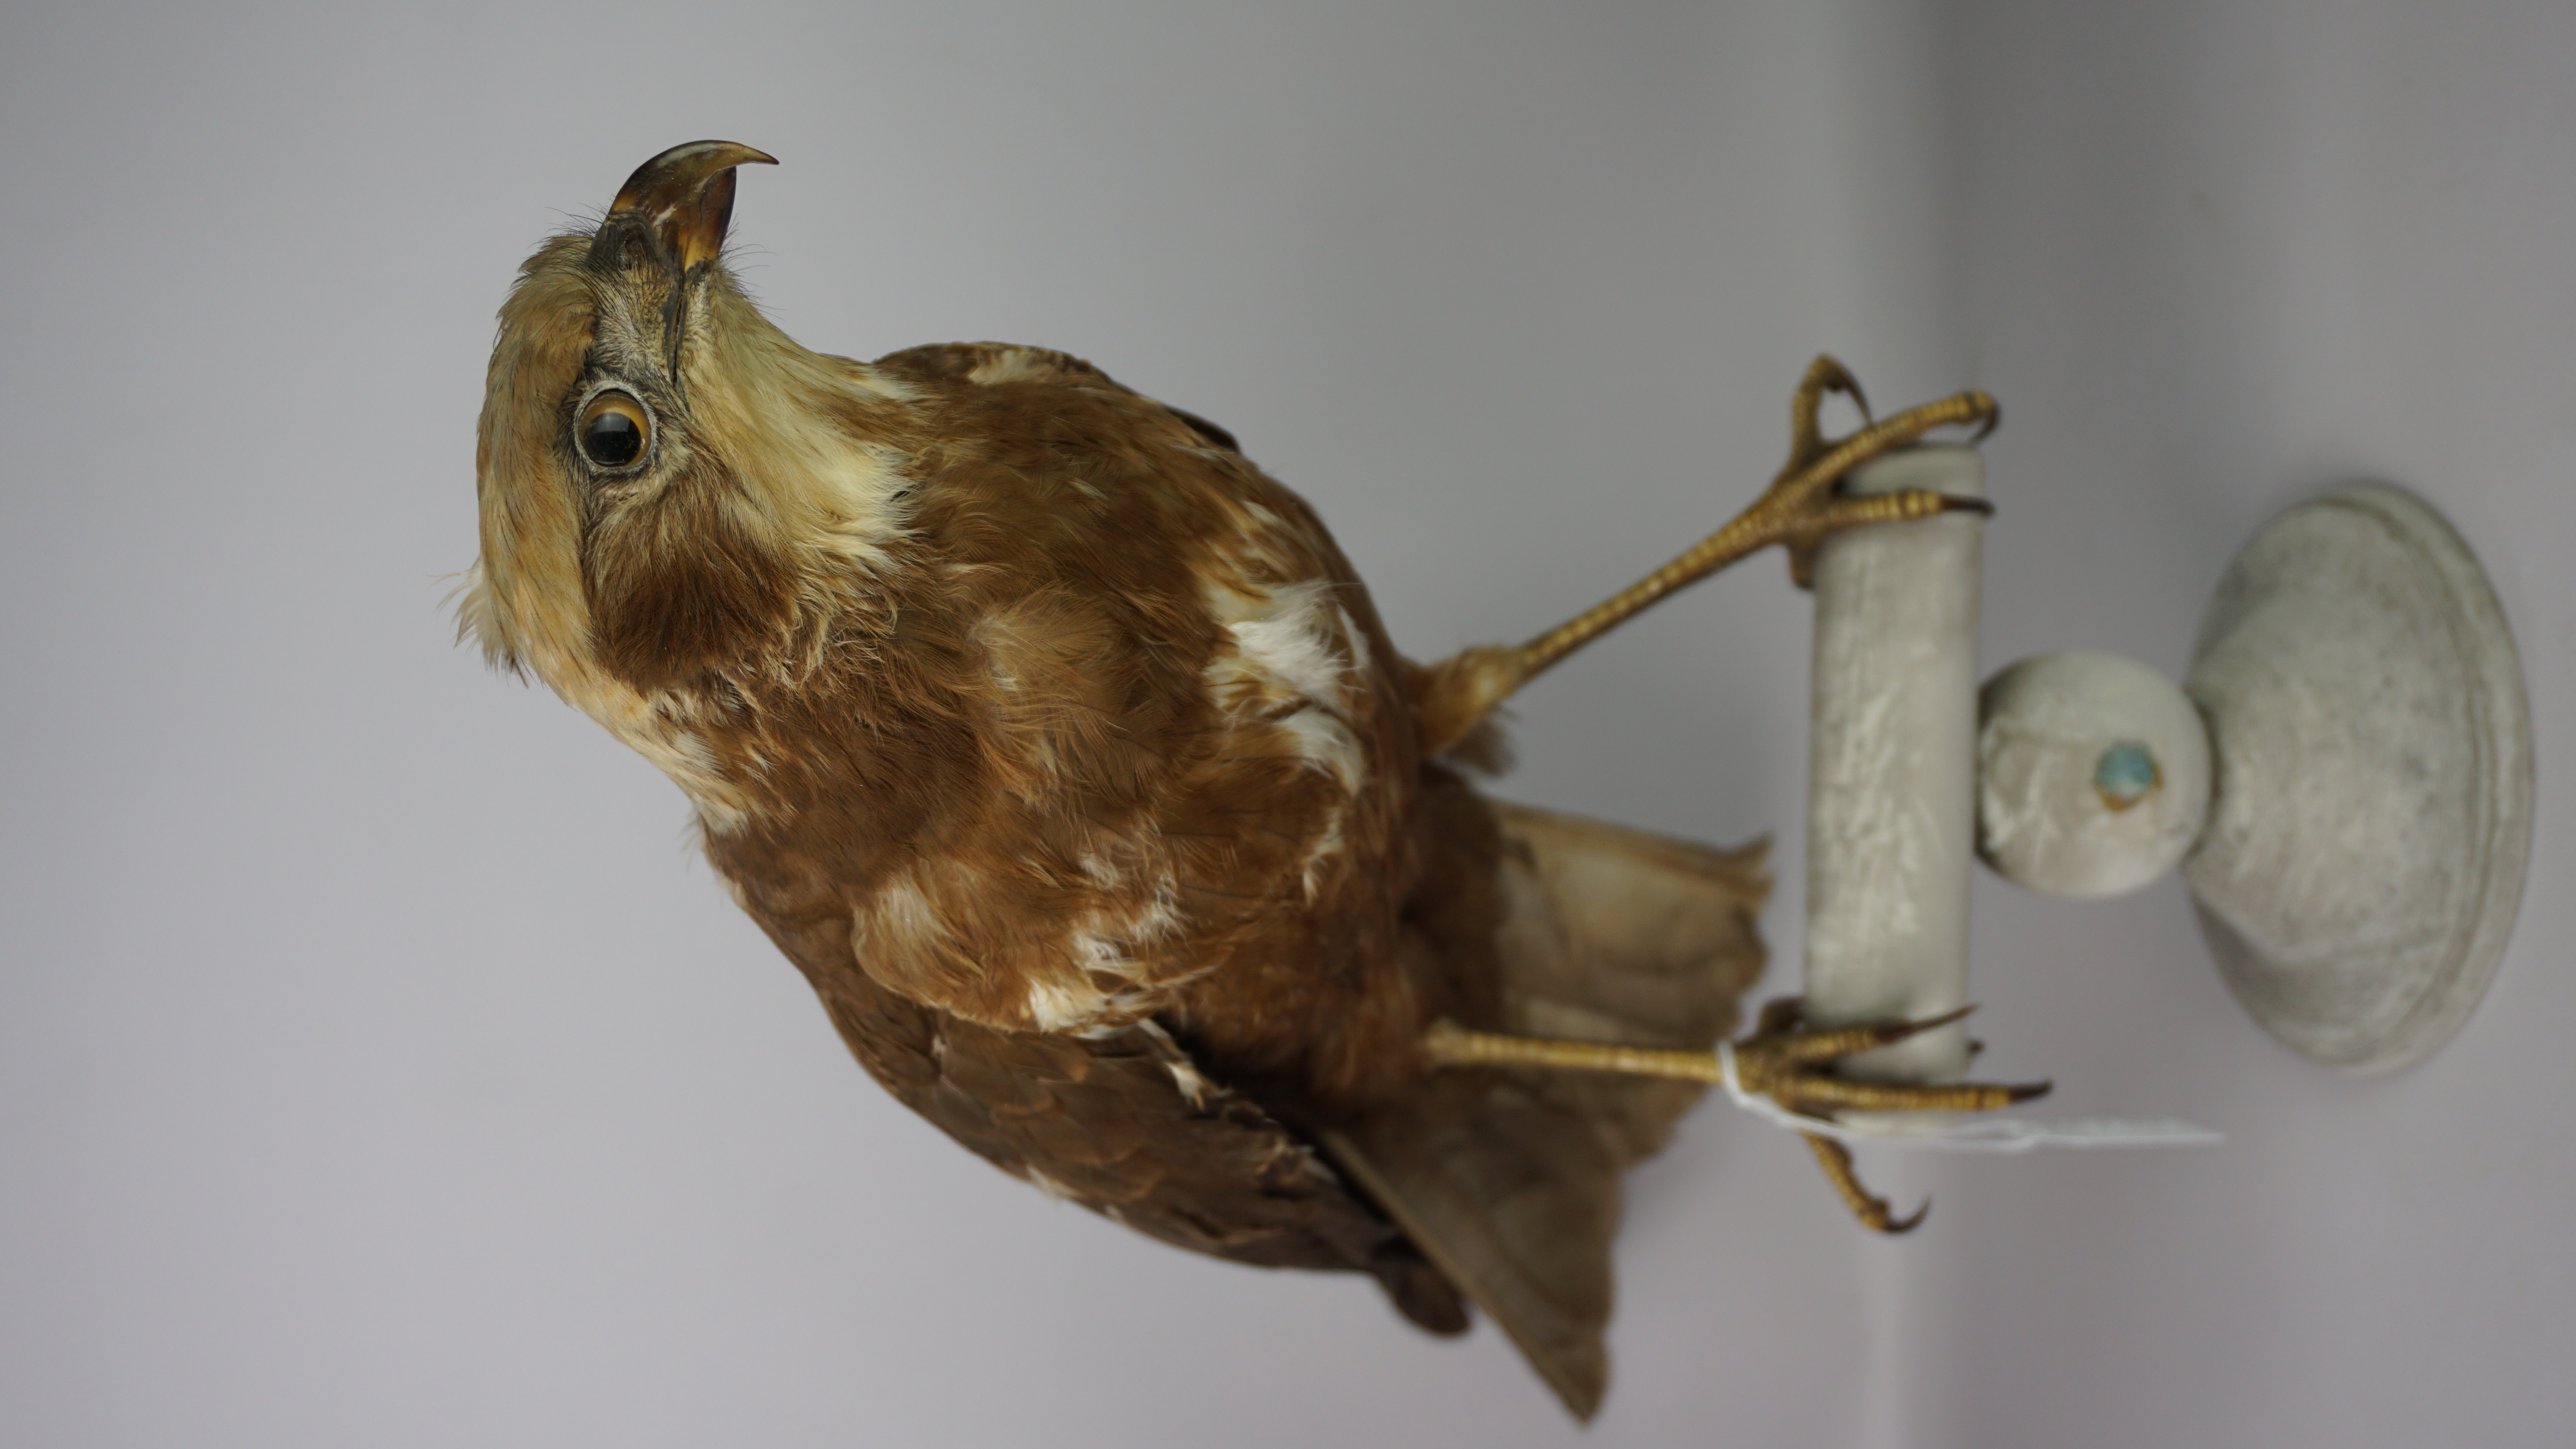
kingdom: Animalia
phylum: Chordata
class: Aves
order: Accipitriformes
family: Accipitridae
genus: Circus
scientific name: Circus aeruginosus
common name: Western marsh harrier
